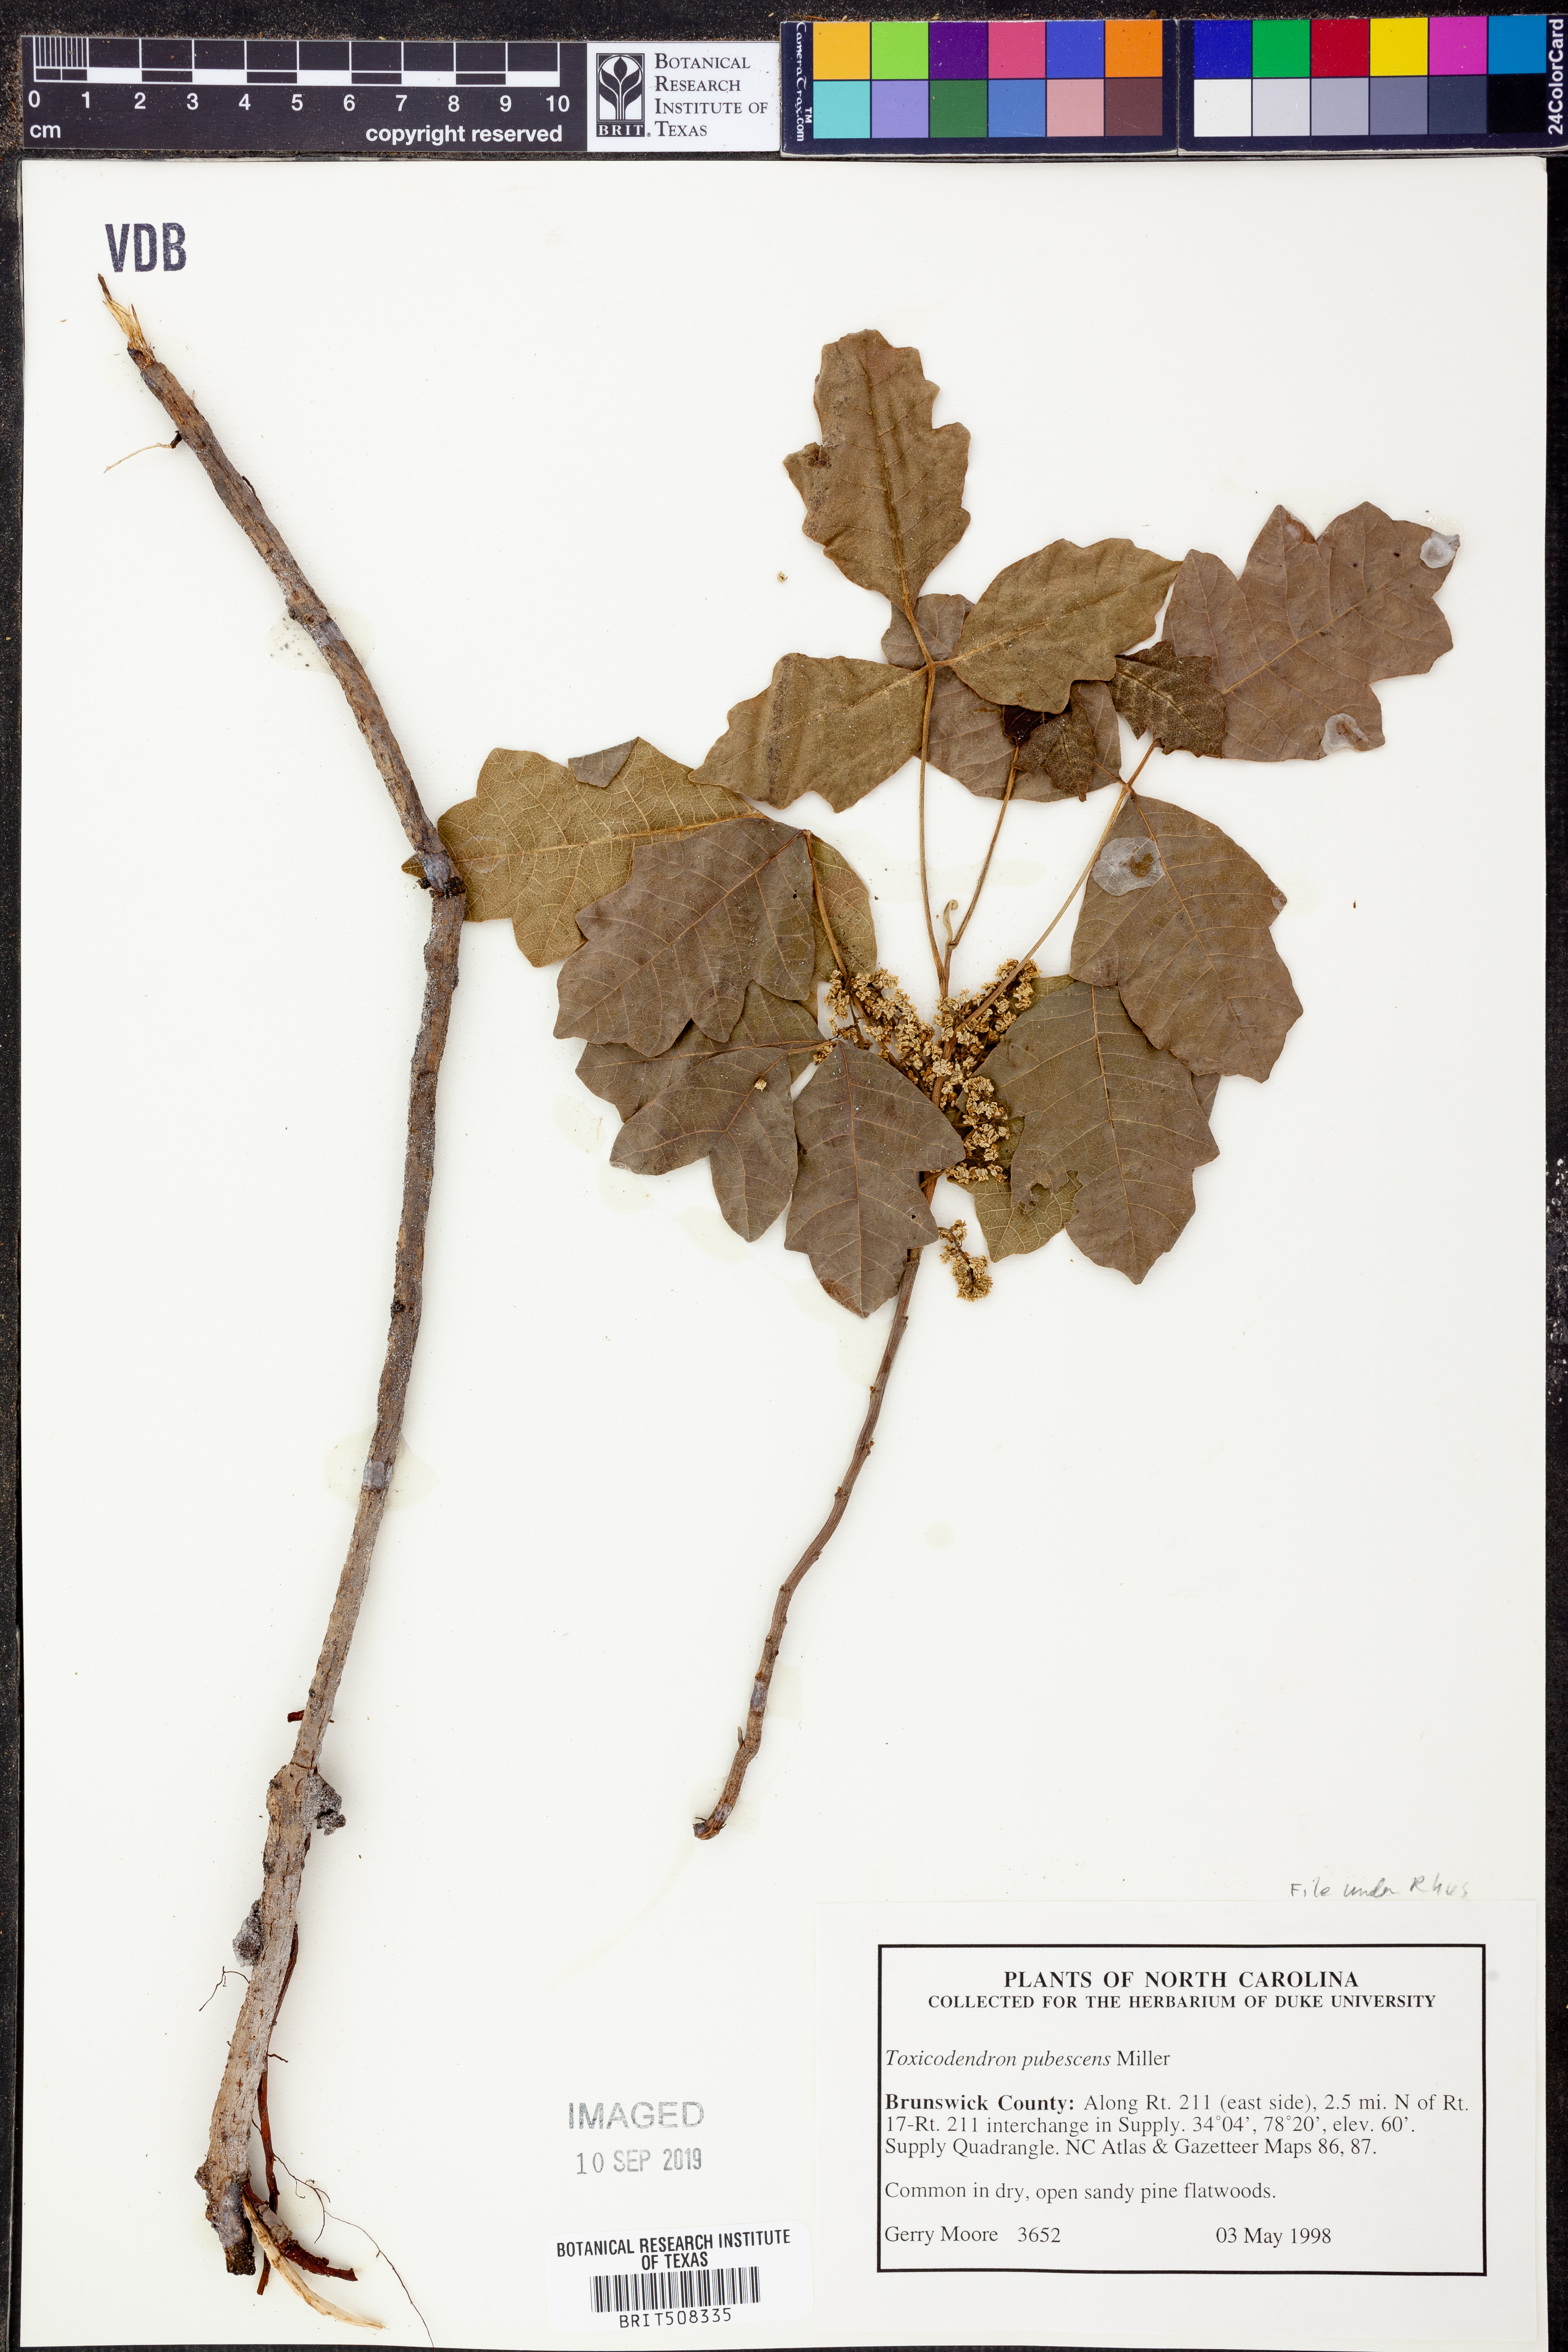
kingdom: Plantae
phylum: Tracheophyta
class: Magnoliopsida
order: Sapindales
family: Anacardiaceae
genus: Toxicodendron
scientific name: Toxicodendron pubescens
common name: Eastern poison-oak
